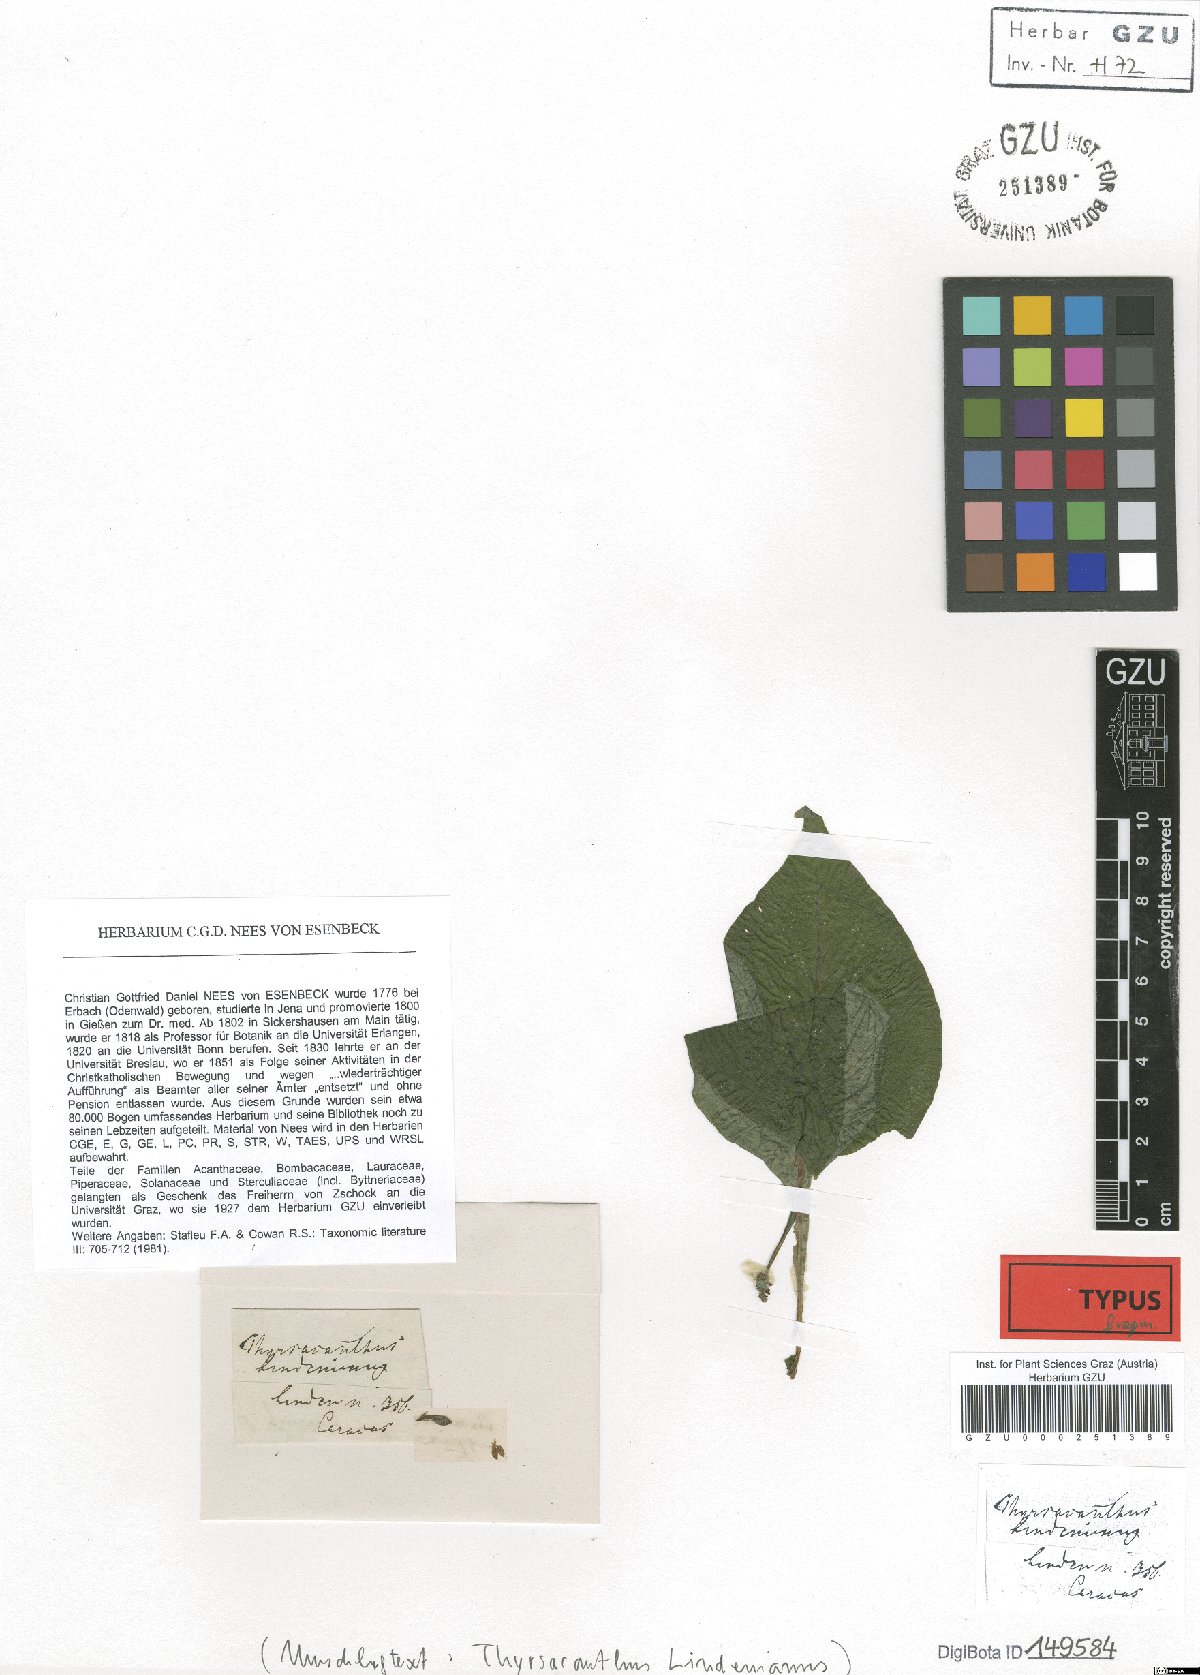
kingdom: Plantae
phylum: Tracheophyta
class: Magnoliopsida
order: Lamiales
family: Acanthaceae
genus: Pseuderanthemum
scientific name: Pseuderanthemum cuspidatum
